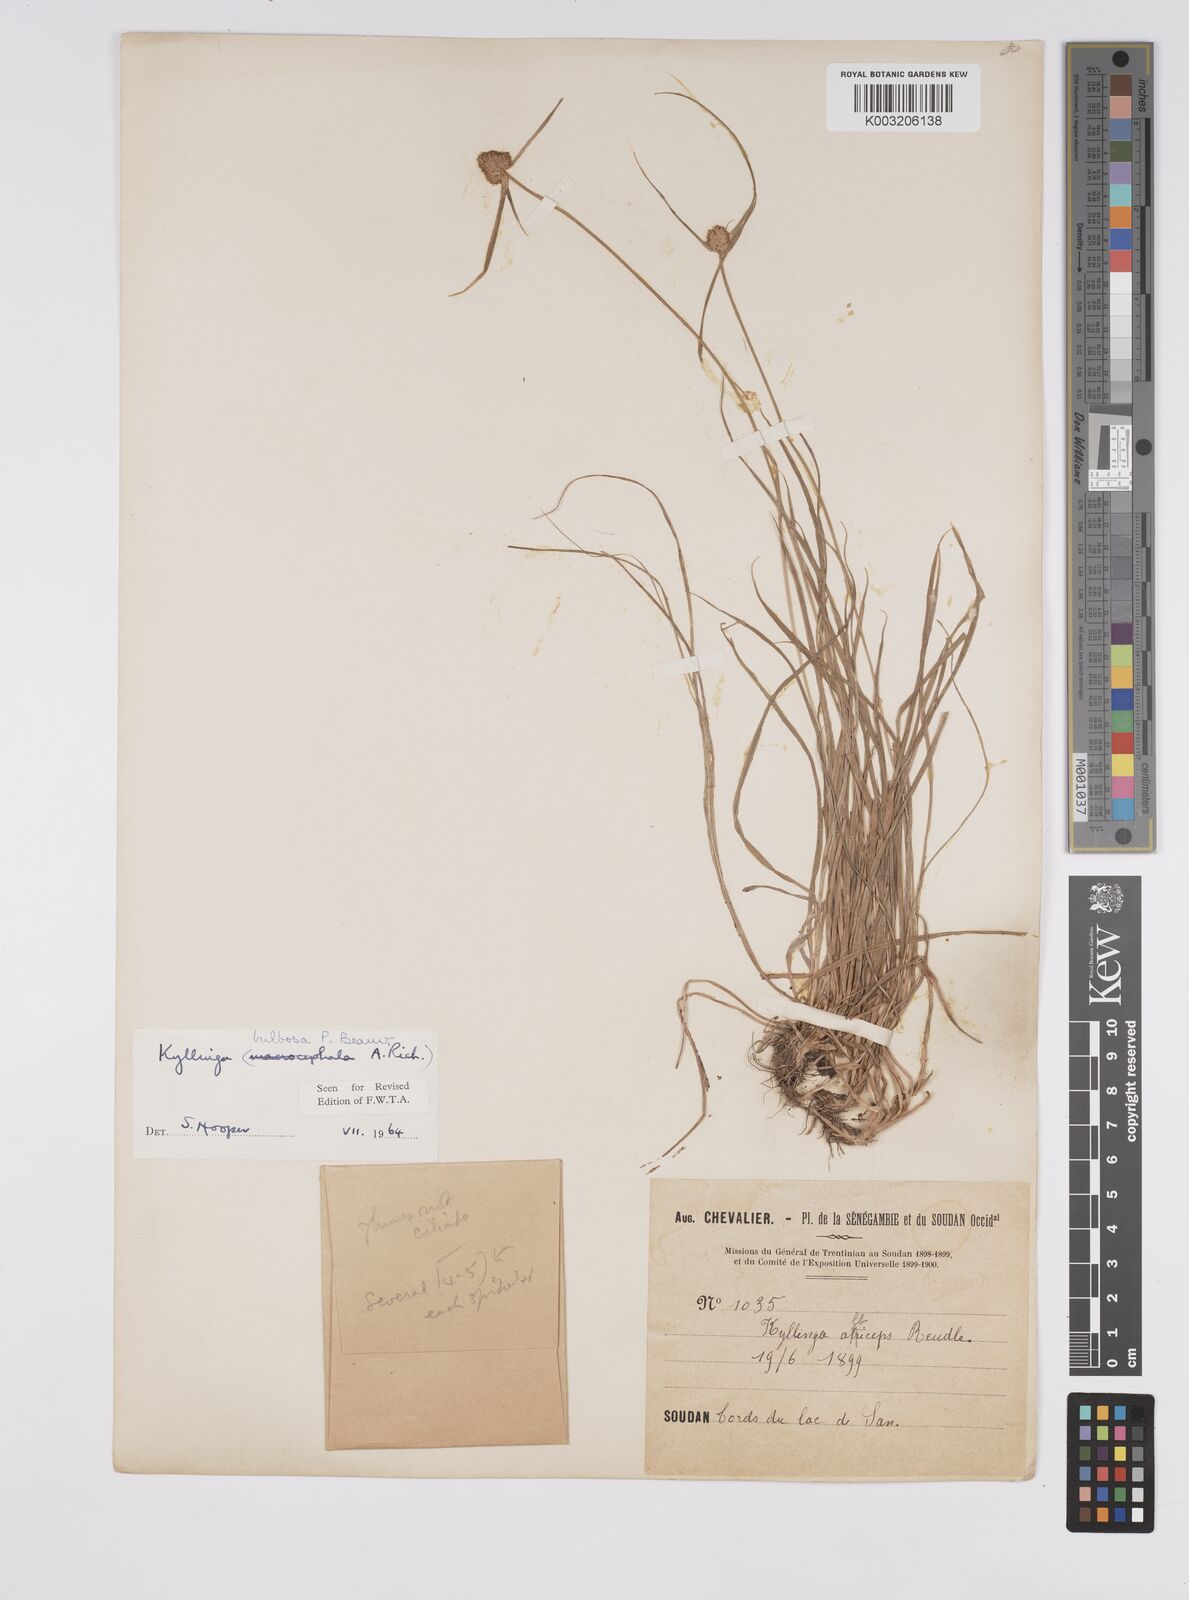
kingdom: Plantae
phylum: Tracheophyta
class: Liliopsida
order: Poales
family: Cyperaceae
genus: Cyperus
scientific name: Cyperus
